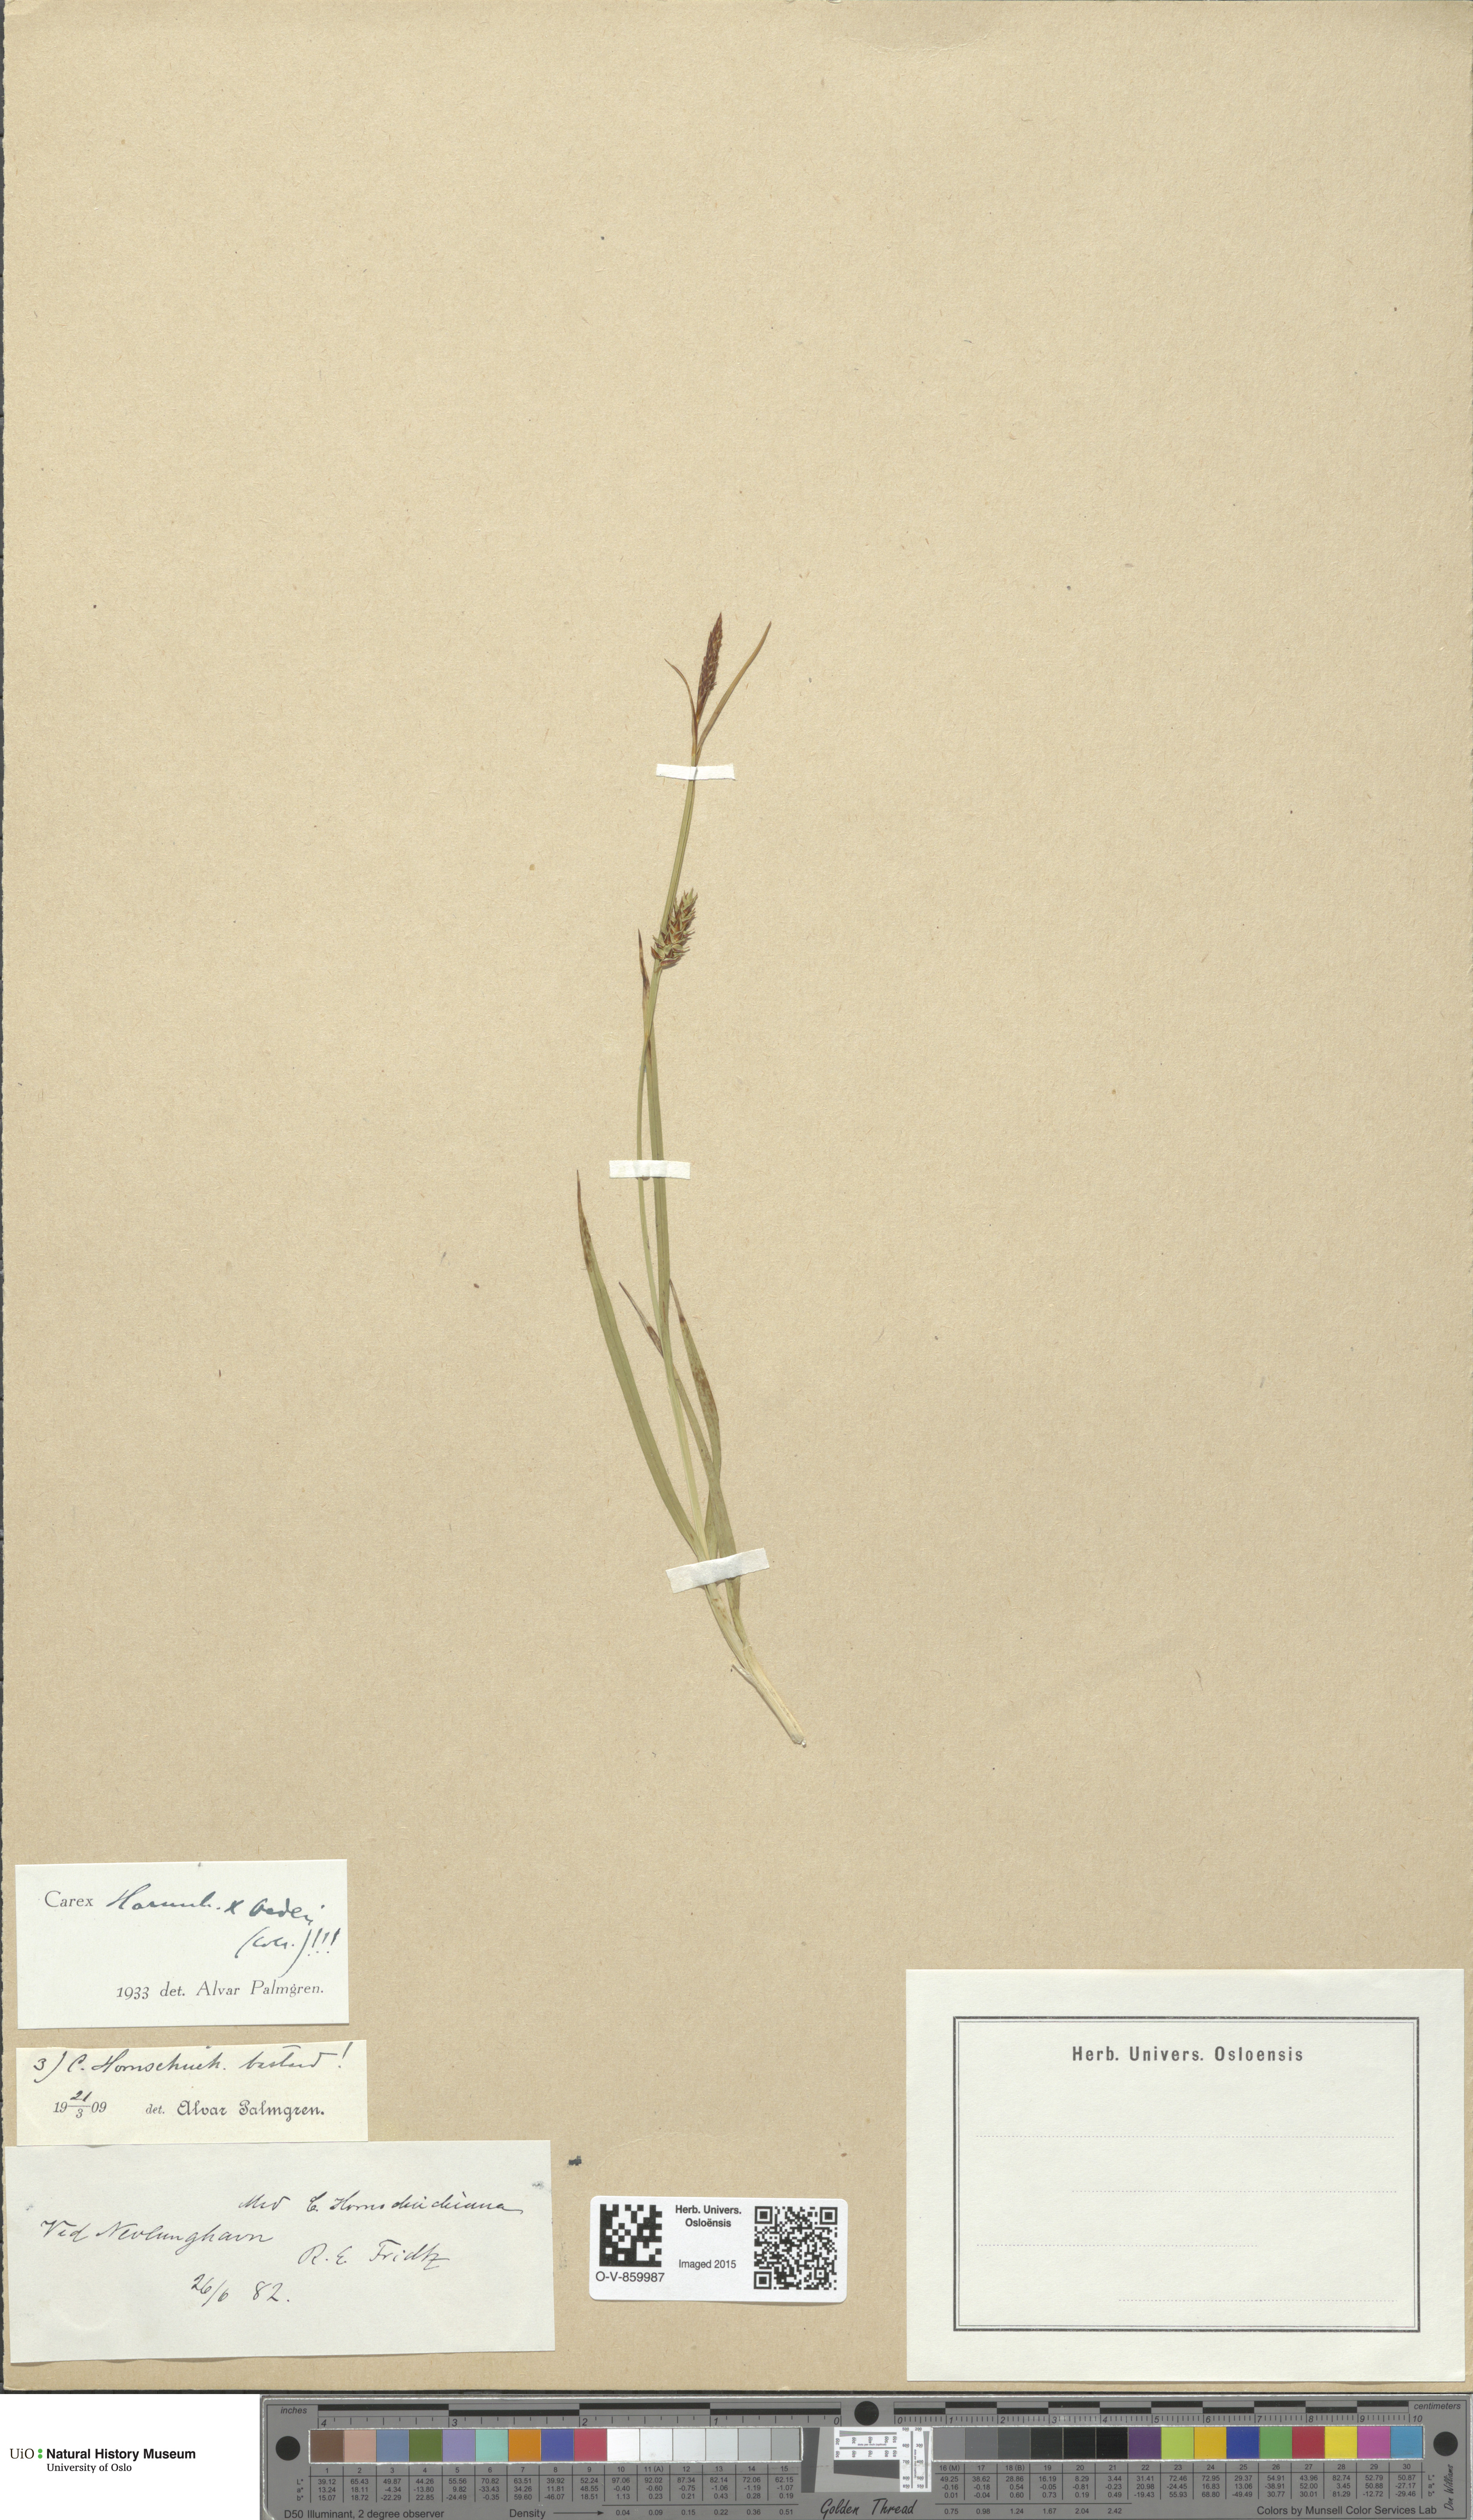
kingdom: Plantae
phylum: Tracheophyta
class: Liliopsida
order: Poales
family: Cyperaceae
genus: Carex
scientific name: Carex
